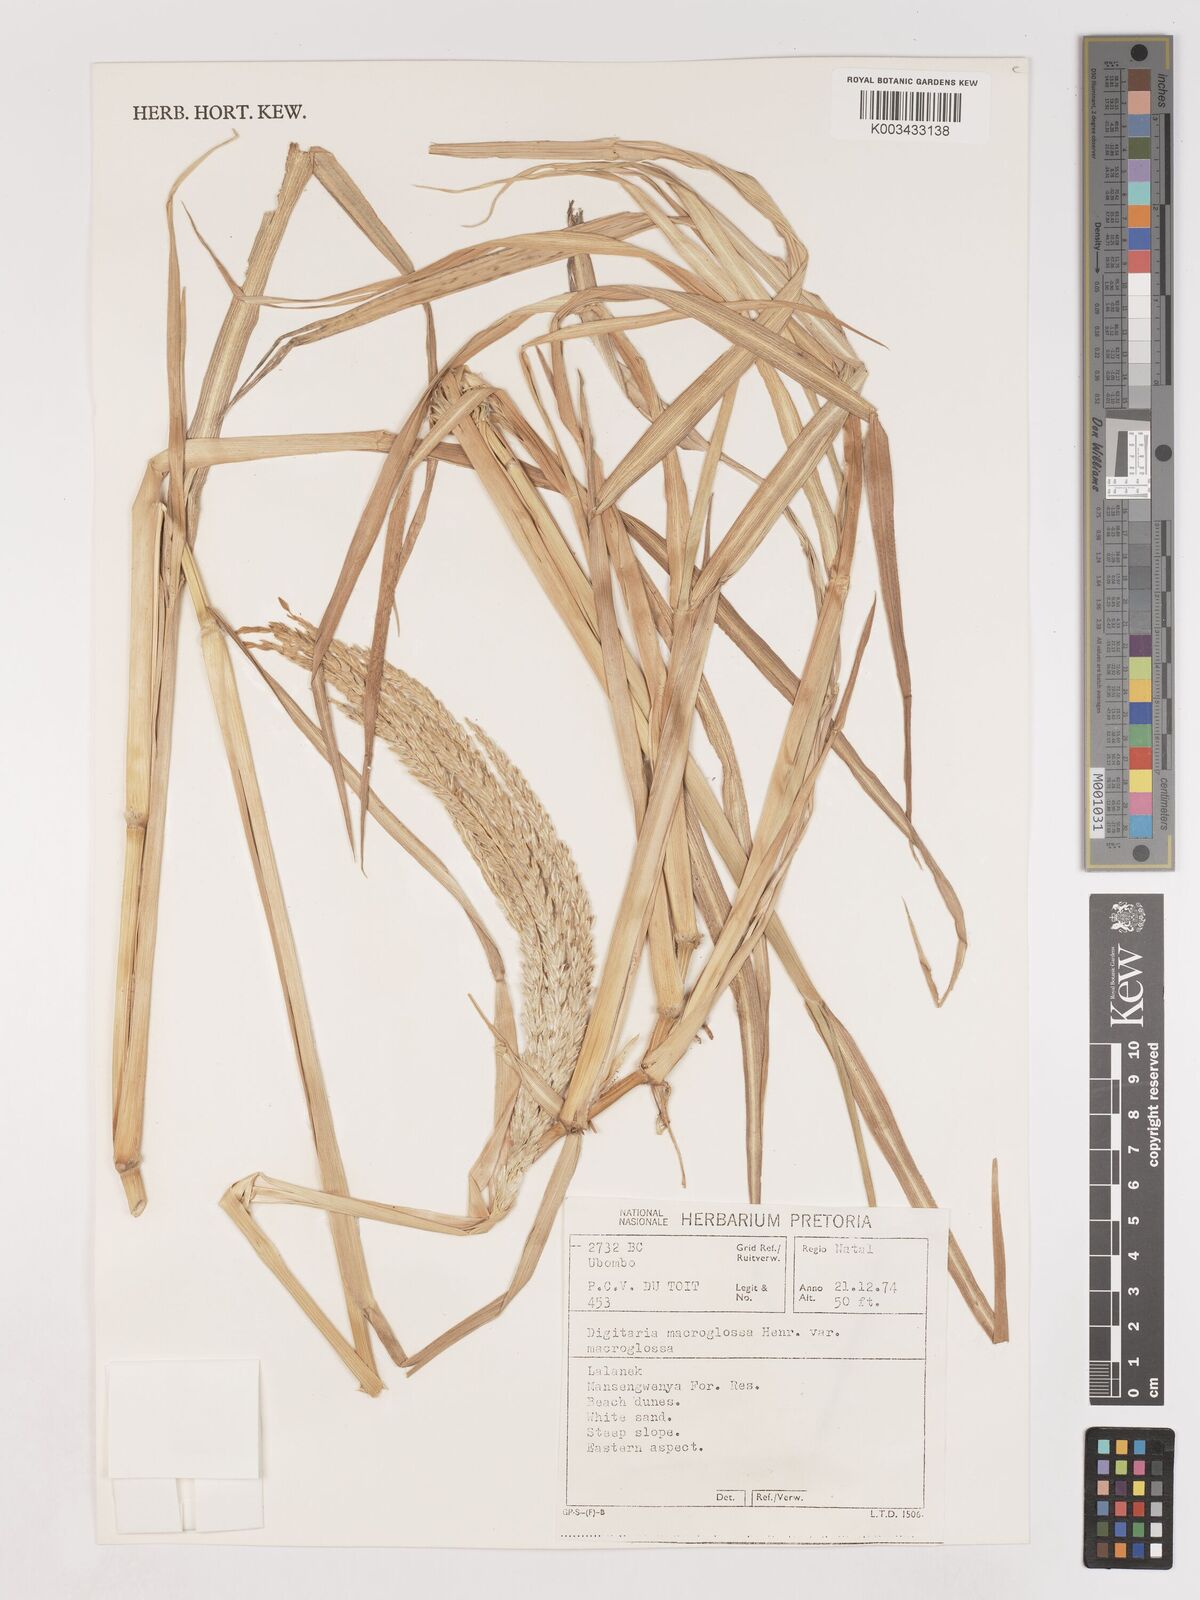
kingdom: Plantae
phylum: Tracheophyta
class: Liliopsida
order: Poales
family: Poaceae
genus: Digitaria
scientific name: Digitaria natalensis
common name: Coast finger grass
